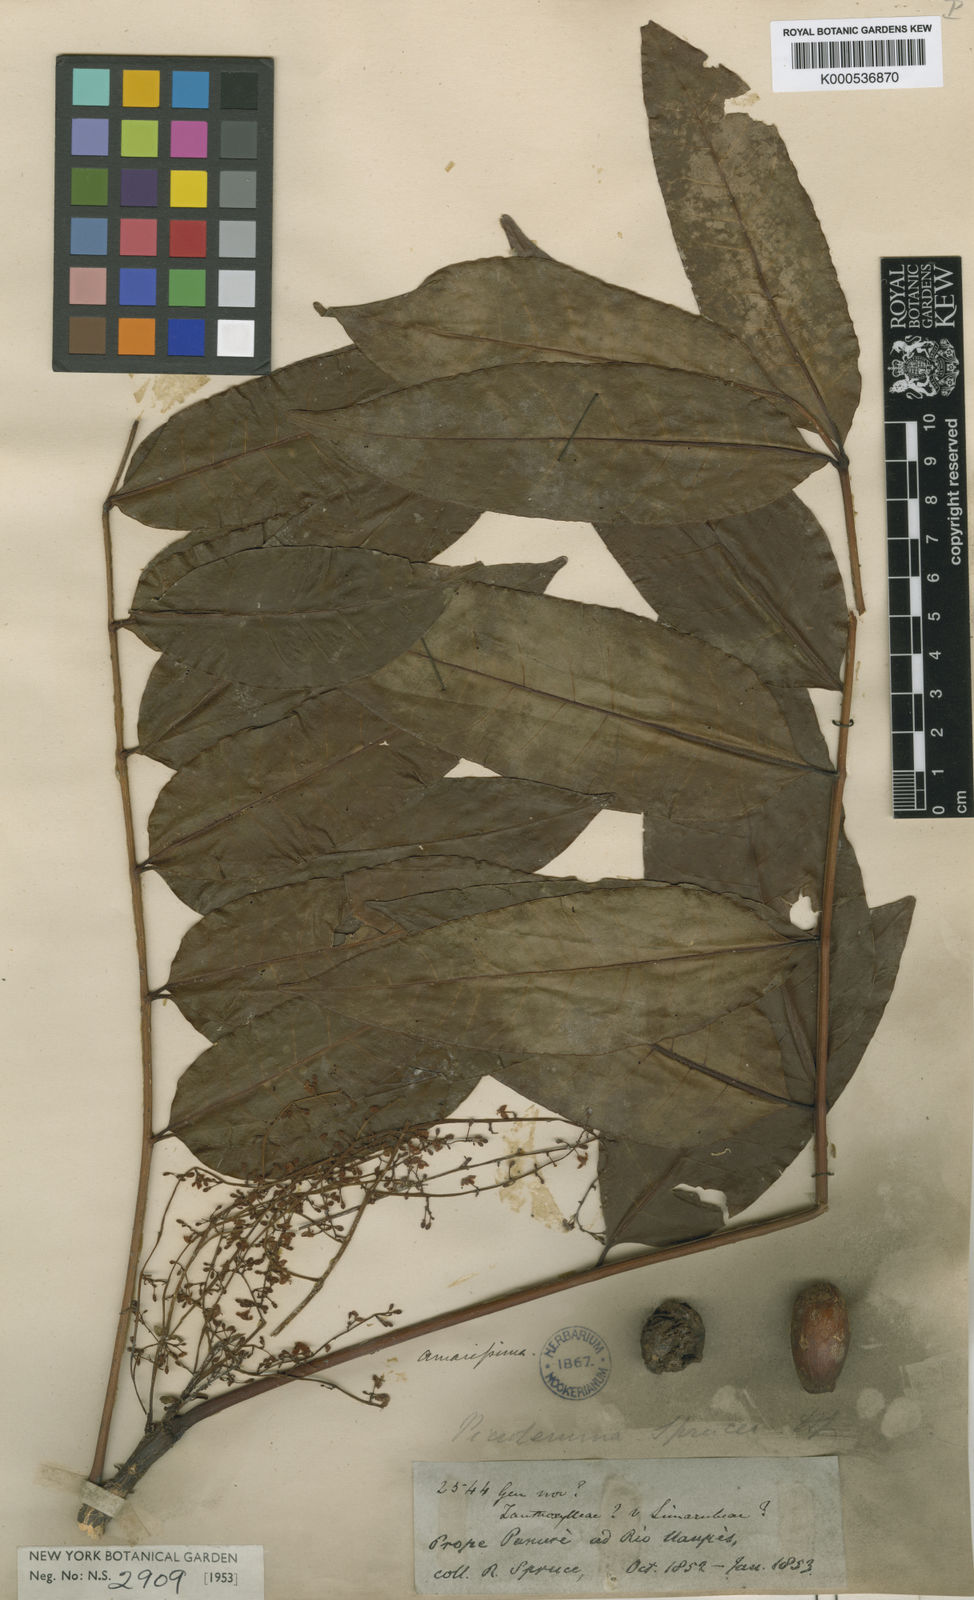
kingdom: Plantae
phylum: Tracheophyta
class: Magnoliopsida
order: Sapindales
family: Simaroubaceae
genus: Picrolemma
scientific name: Picrolemma sprucei
